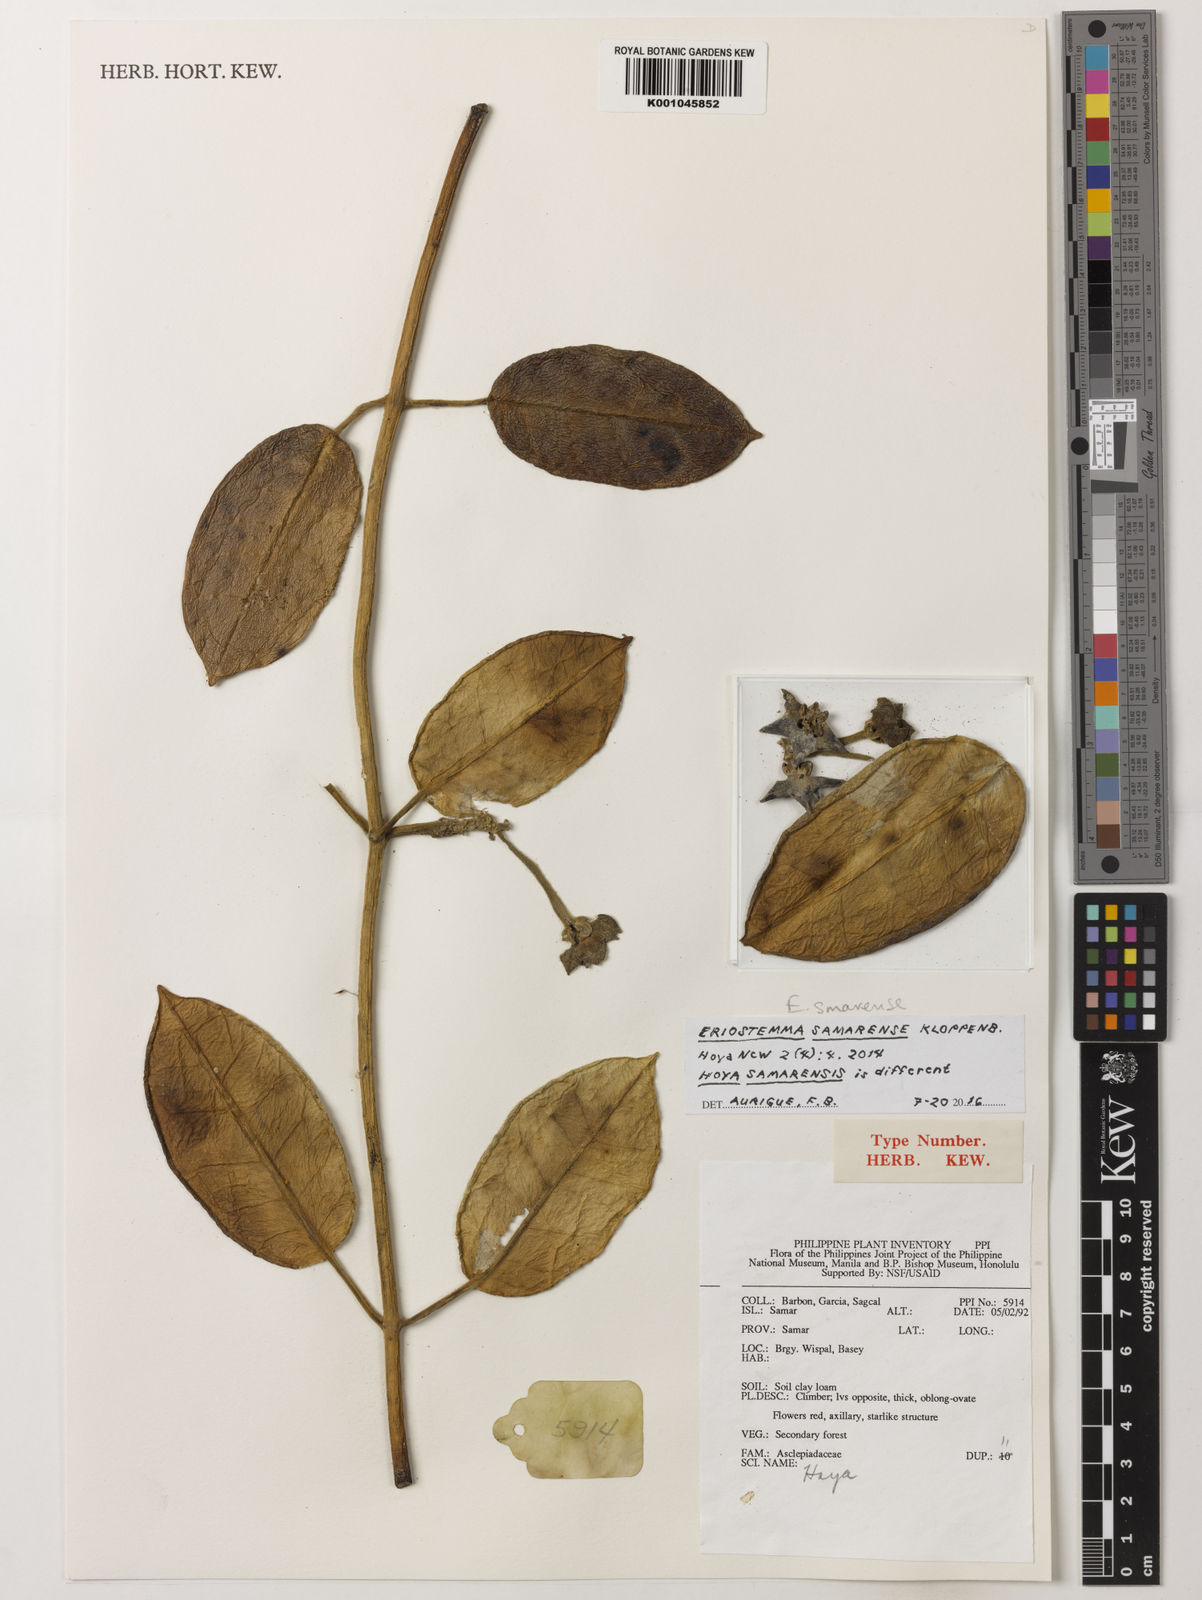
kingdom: Plantae
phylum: Tracheophyta
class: Magnoliopsida
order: Gentianales
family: Apocynaceae
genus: Eriostemma
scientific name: Eriostemma smarense
